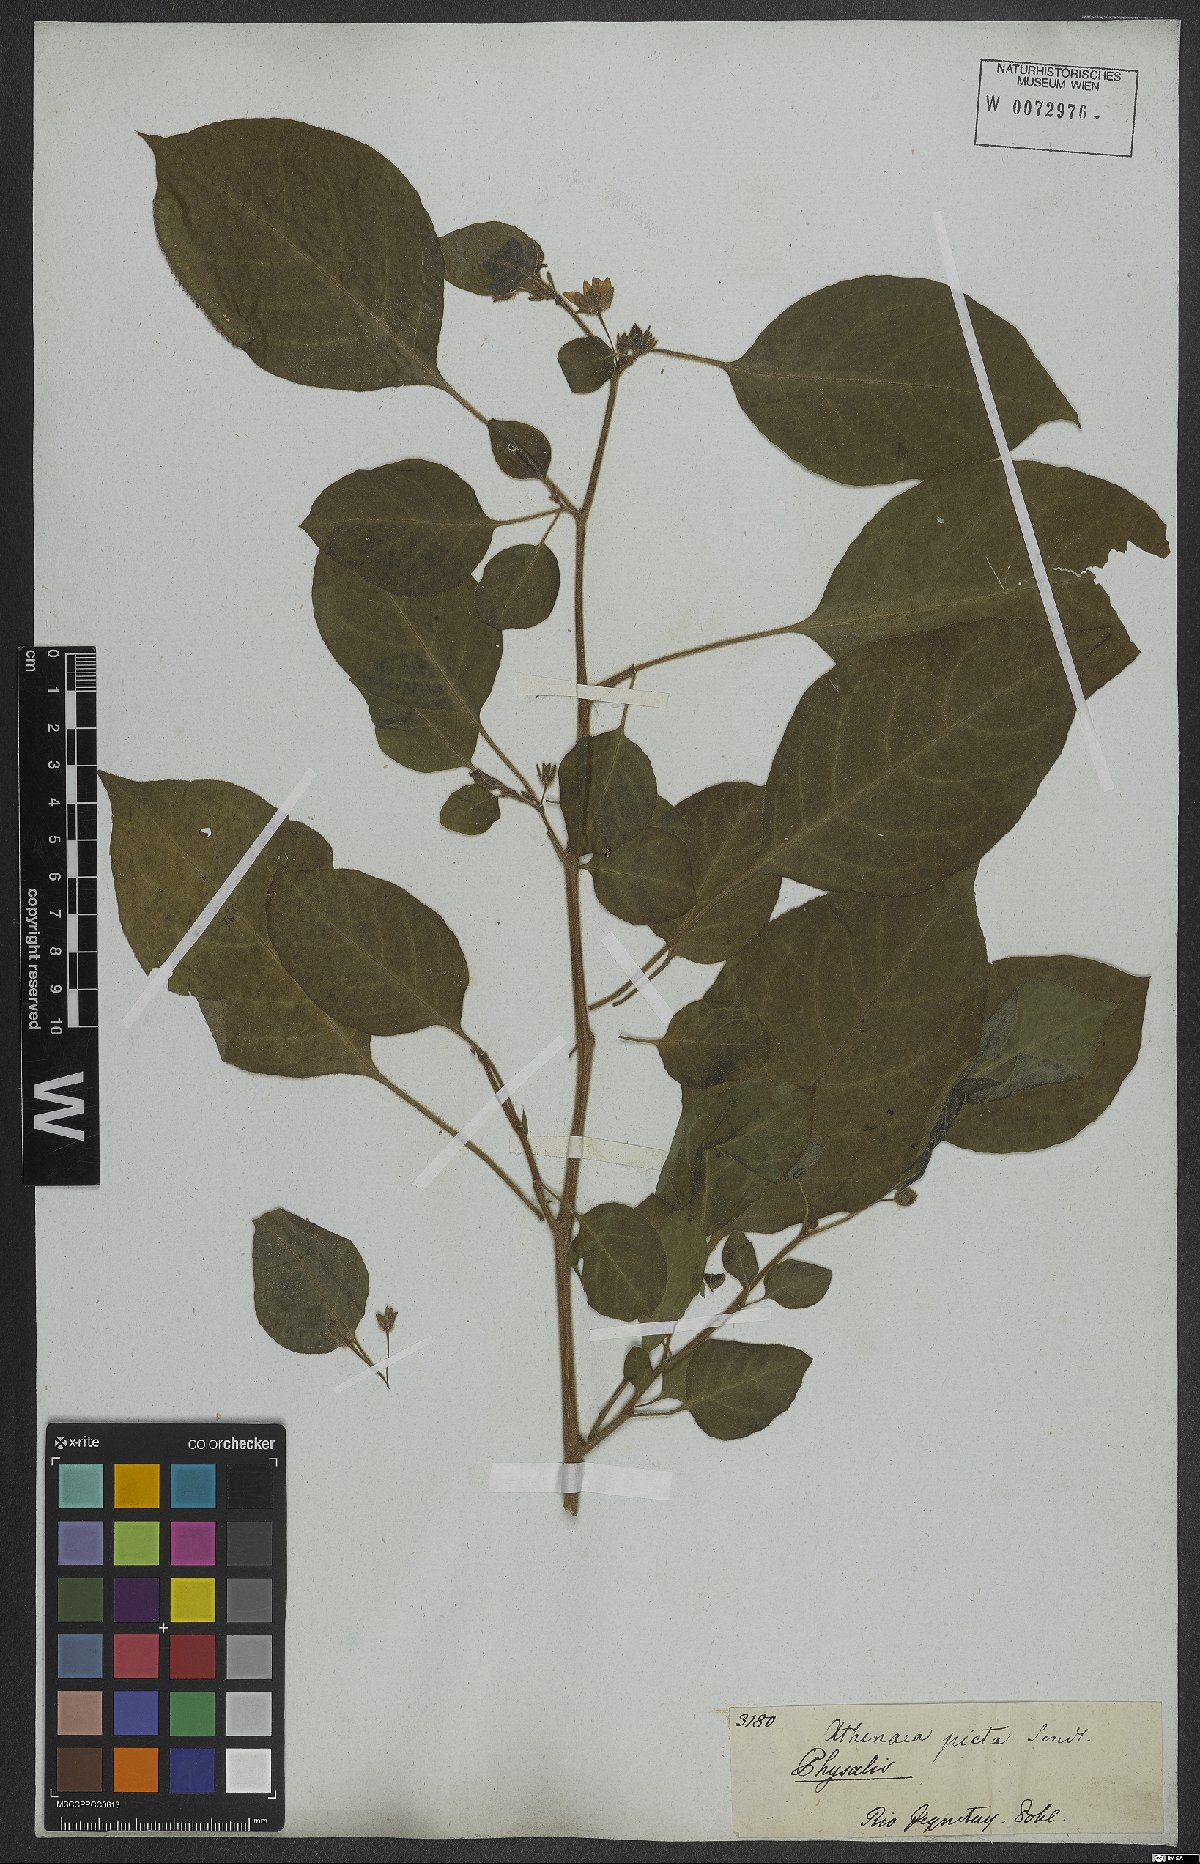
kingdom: Plantae
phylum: Tracheophyta
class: Magnoliopsida
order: Solanales
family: Solanaceae
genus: Physalis
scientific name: Physalis
